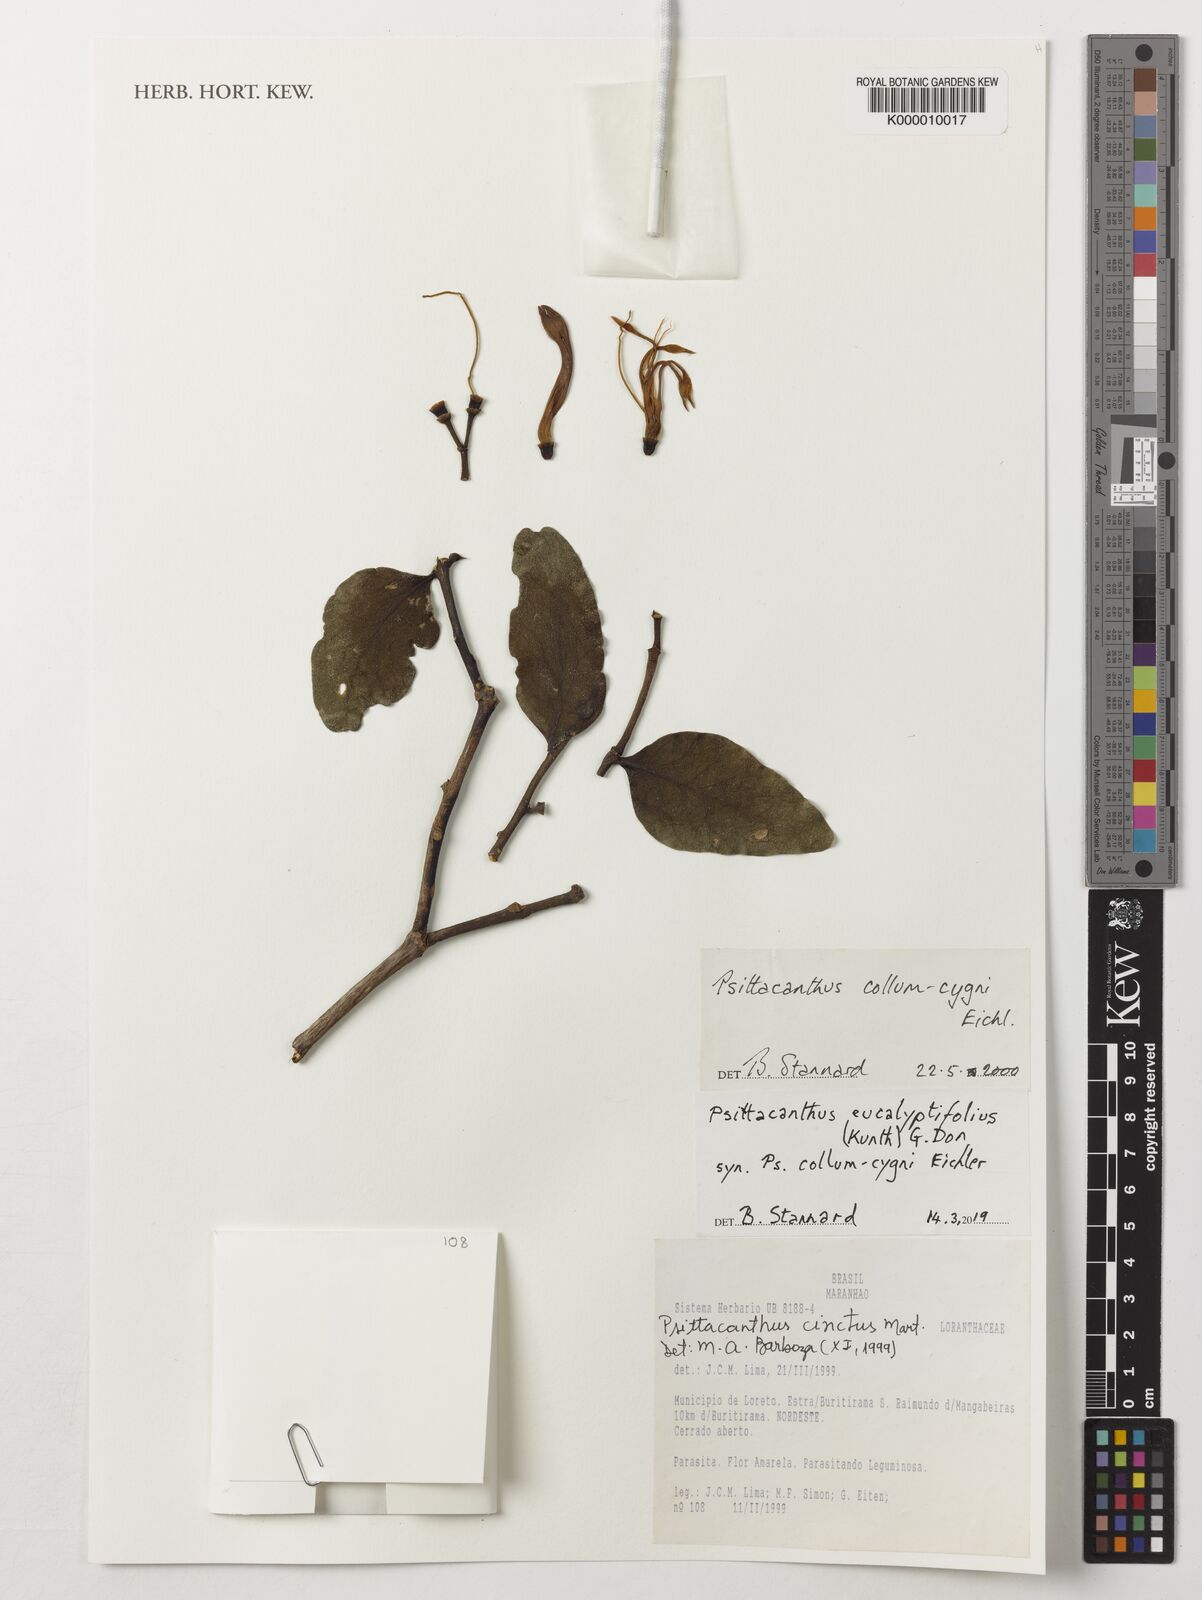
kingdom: Plantae
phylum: Tracheophyta
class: Magnoliopsida
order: Santalales
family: Loranthaceae
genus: Psittacanthus
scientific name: Psittacanthus eucalyptifolius
